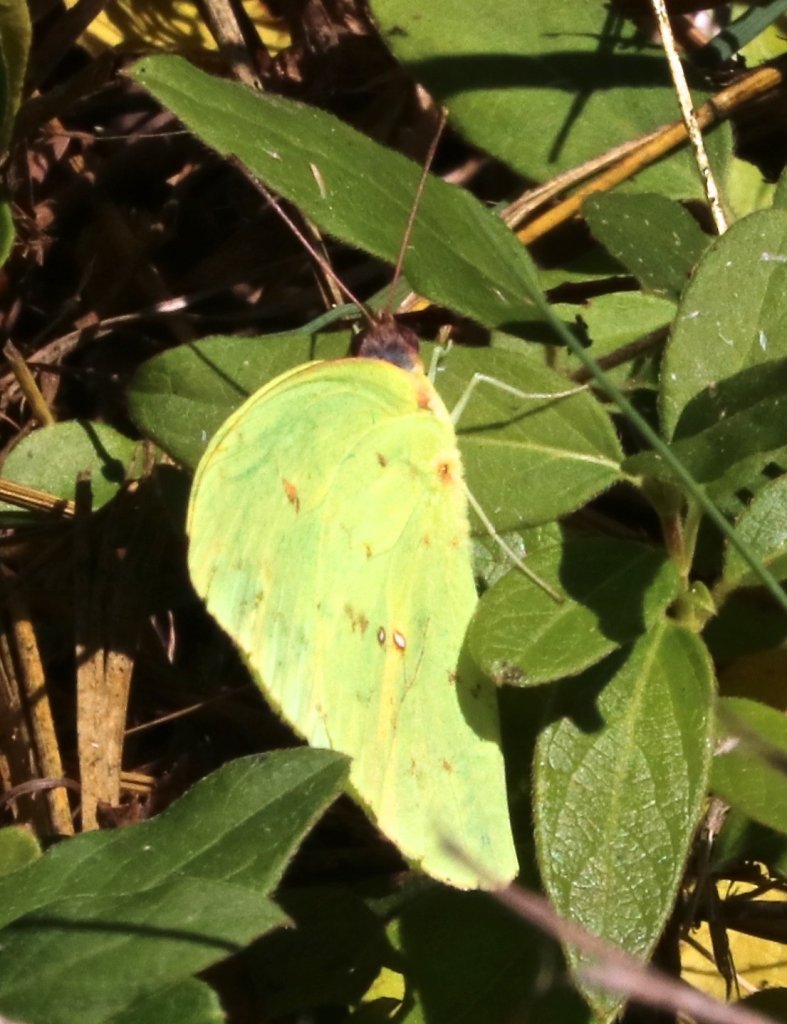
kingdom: Animalia
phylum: Arthropoda
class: Insecta
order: Lepidoptera
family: Pieridae
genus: Phoebis
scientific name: Phoebis sennae
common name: Cloudless Sulphur
